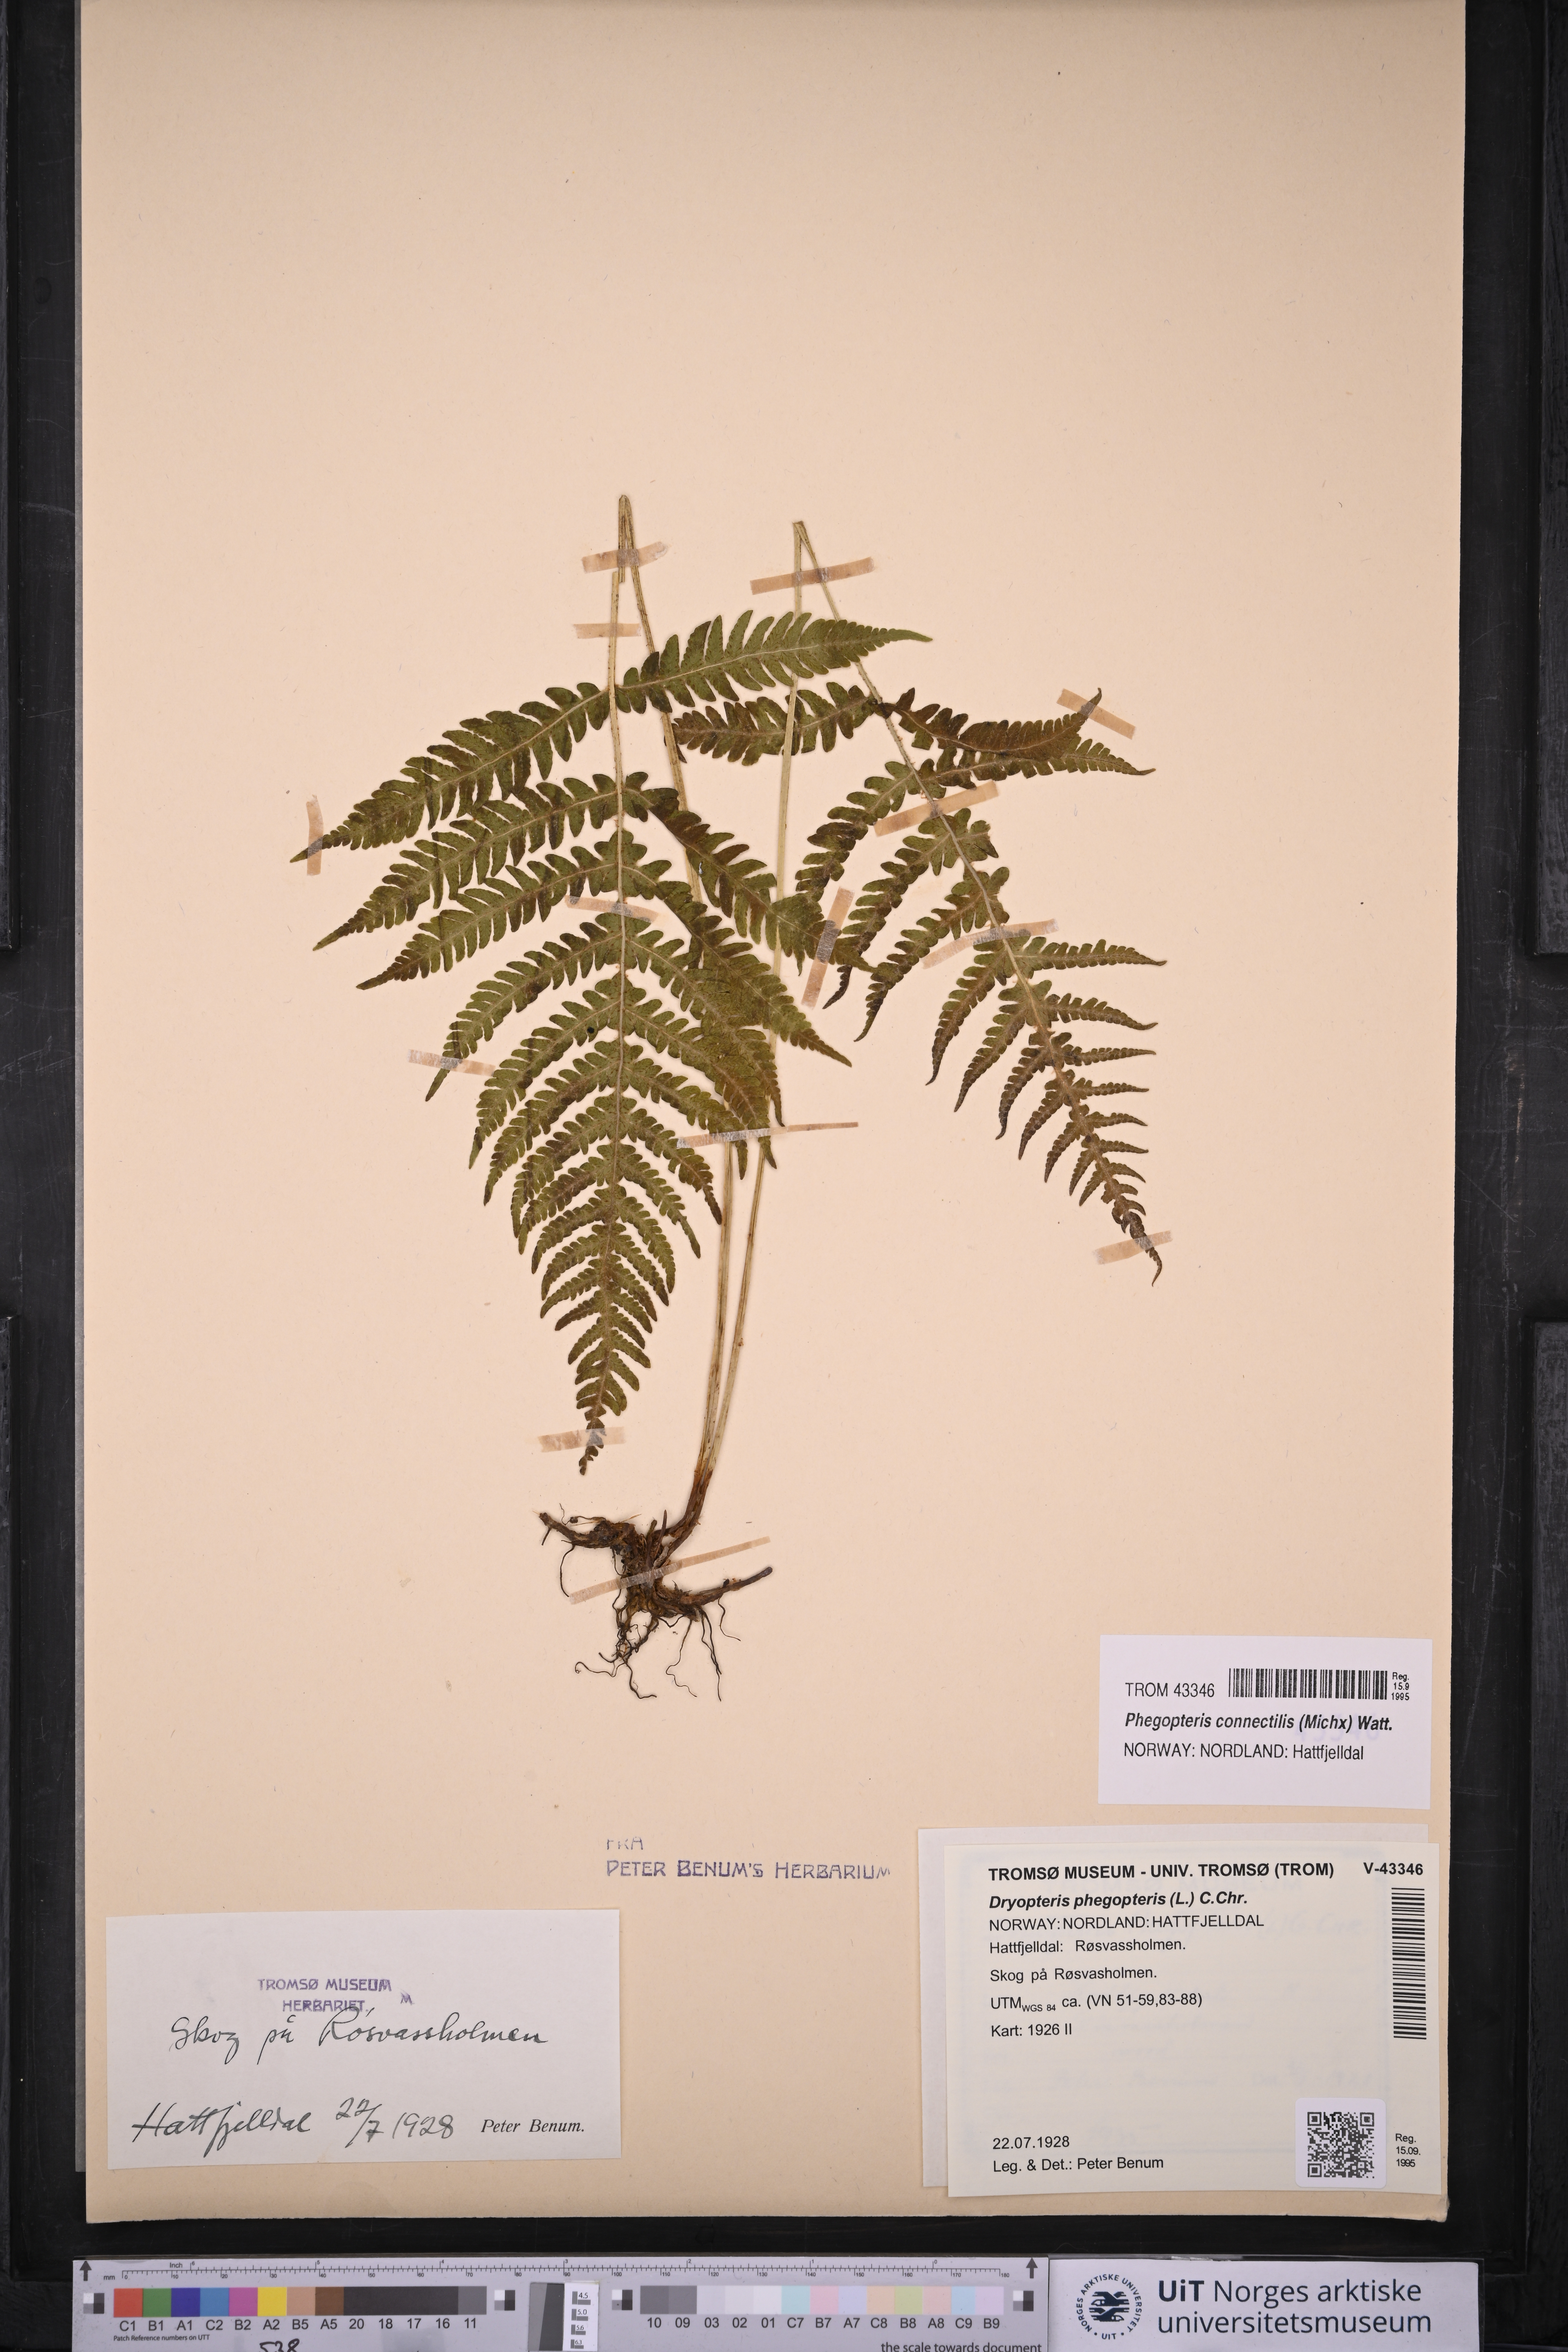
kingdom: Plantae
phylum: Tracheophyta
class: Polypodiopsida
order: Polypodiales
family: Thelypteridaceae
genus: Phegopteris
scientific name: Phegopteris connectilis
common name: Beech fern
